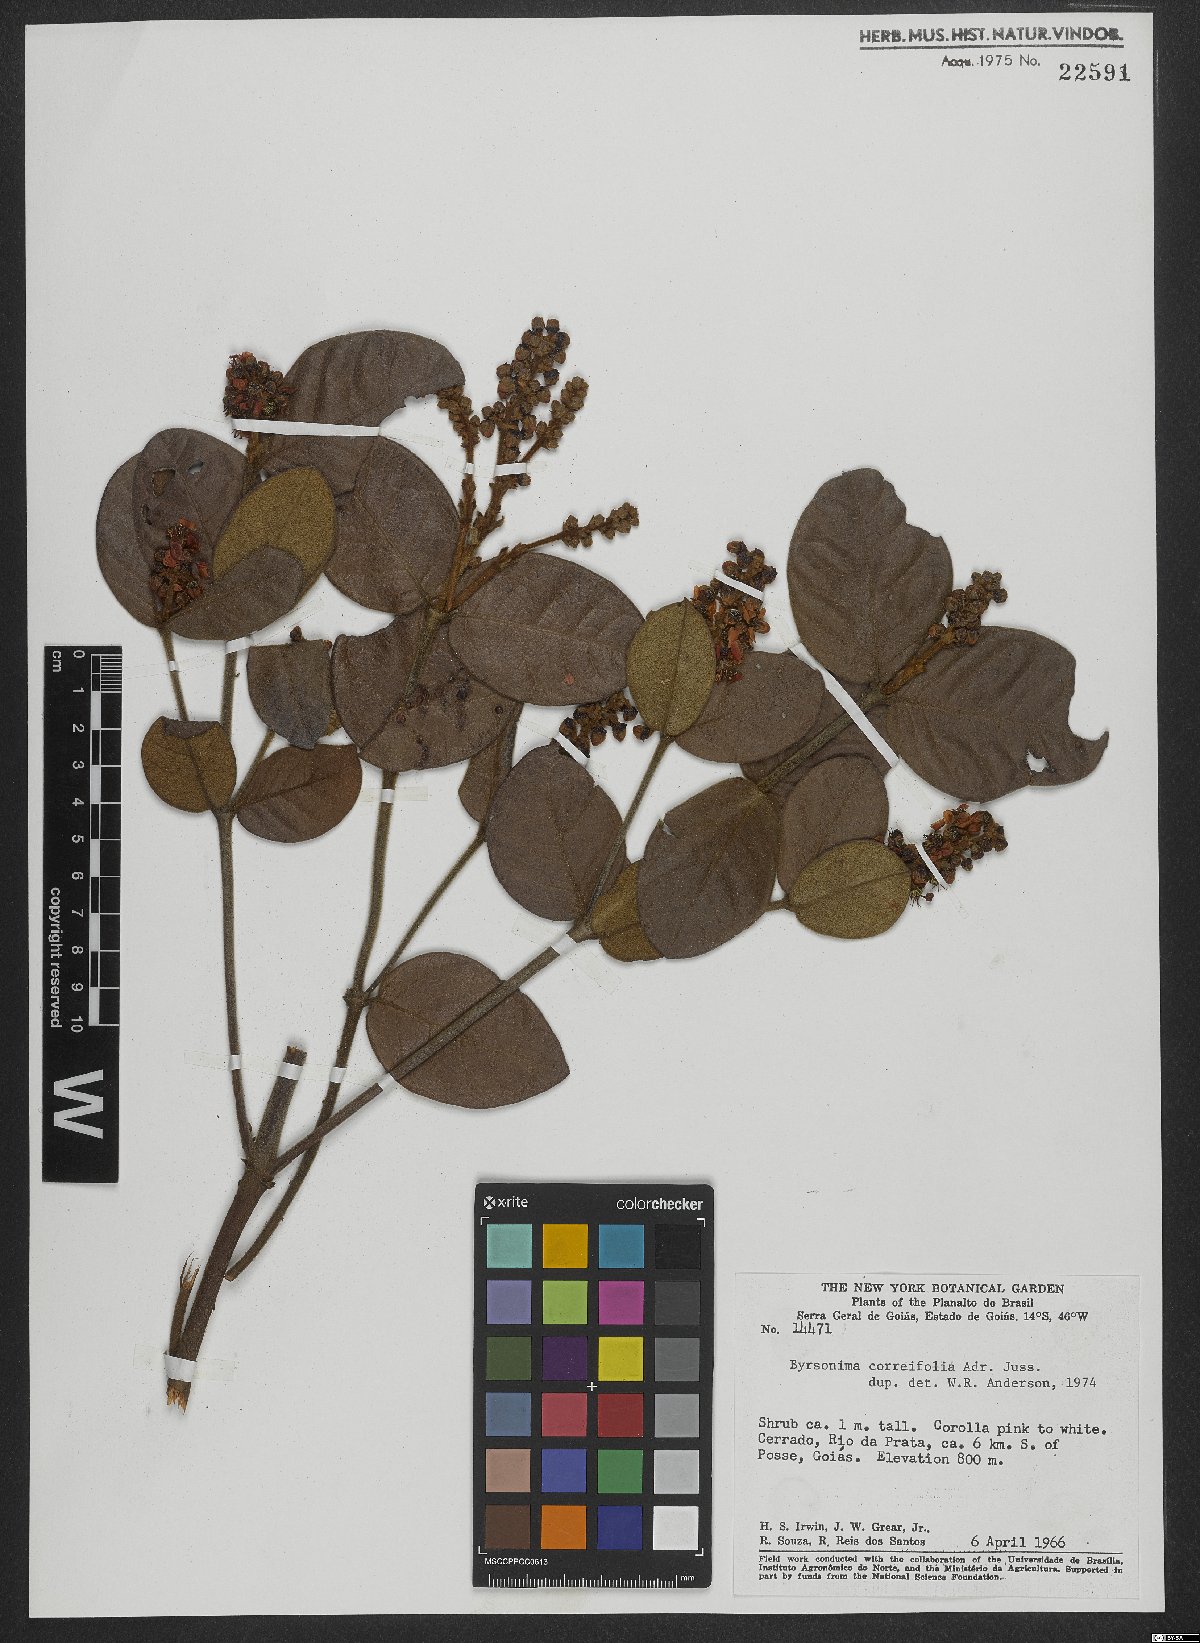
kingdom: Plantae
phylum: Tracheophyta
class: Magnoliopsida
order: Malpighiales
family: Malpighiaceae
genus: Byrsonima
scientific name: Byrsonima correifolia
